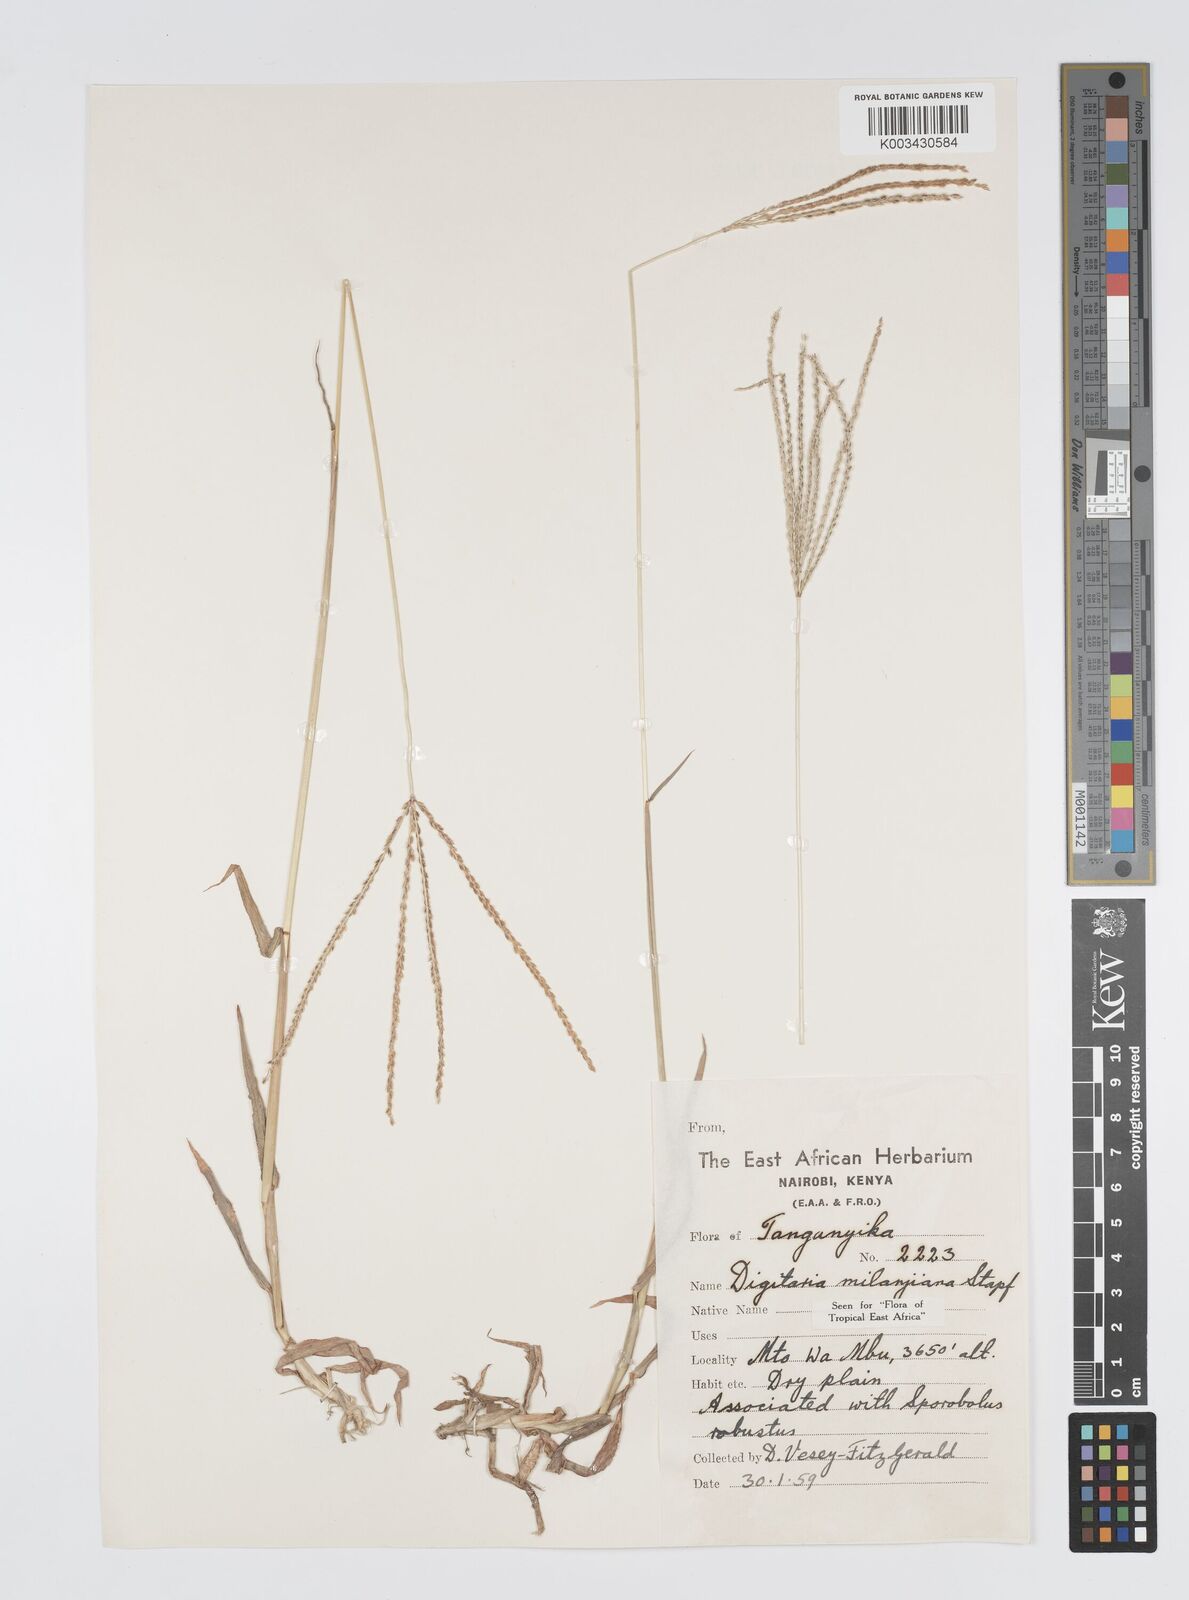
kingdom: Plantae
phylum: Tracheophyta
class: Liliopsida
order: Poales
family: Poaceae
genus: Digitaria
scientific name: Digitaria milanjiana
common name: Madagascar crabgrass
